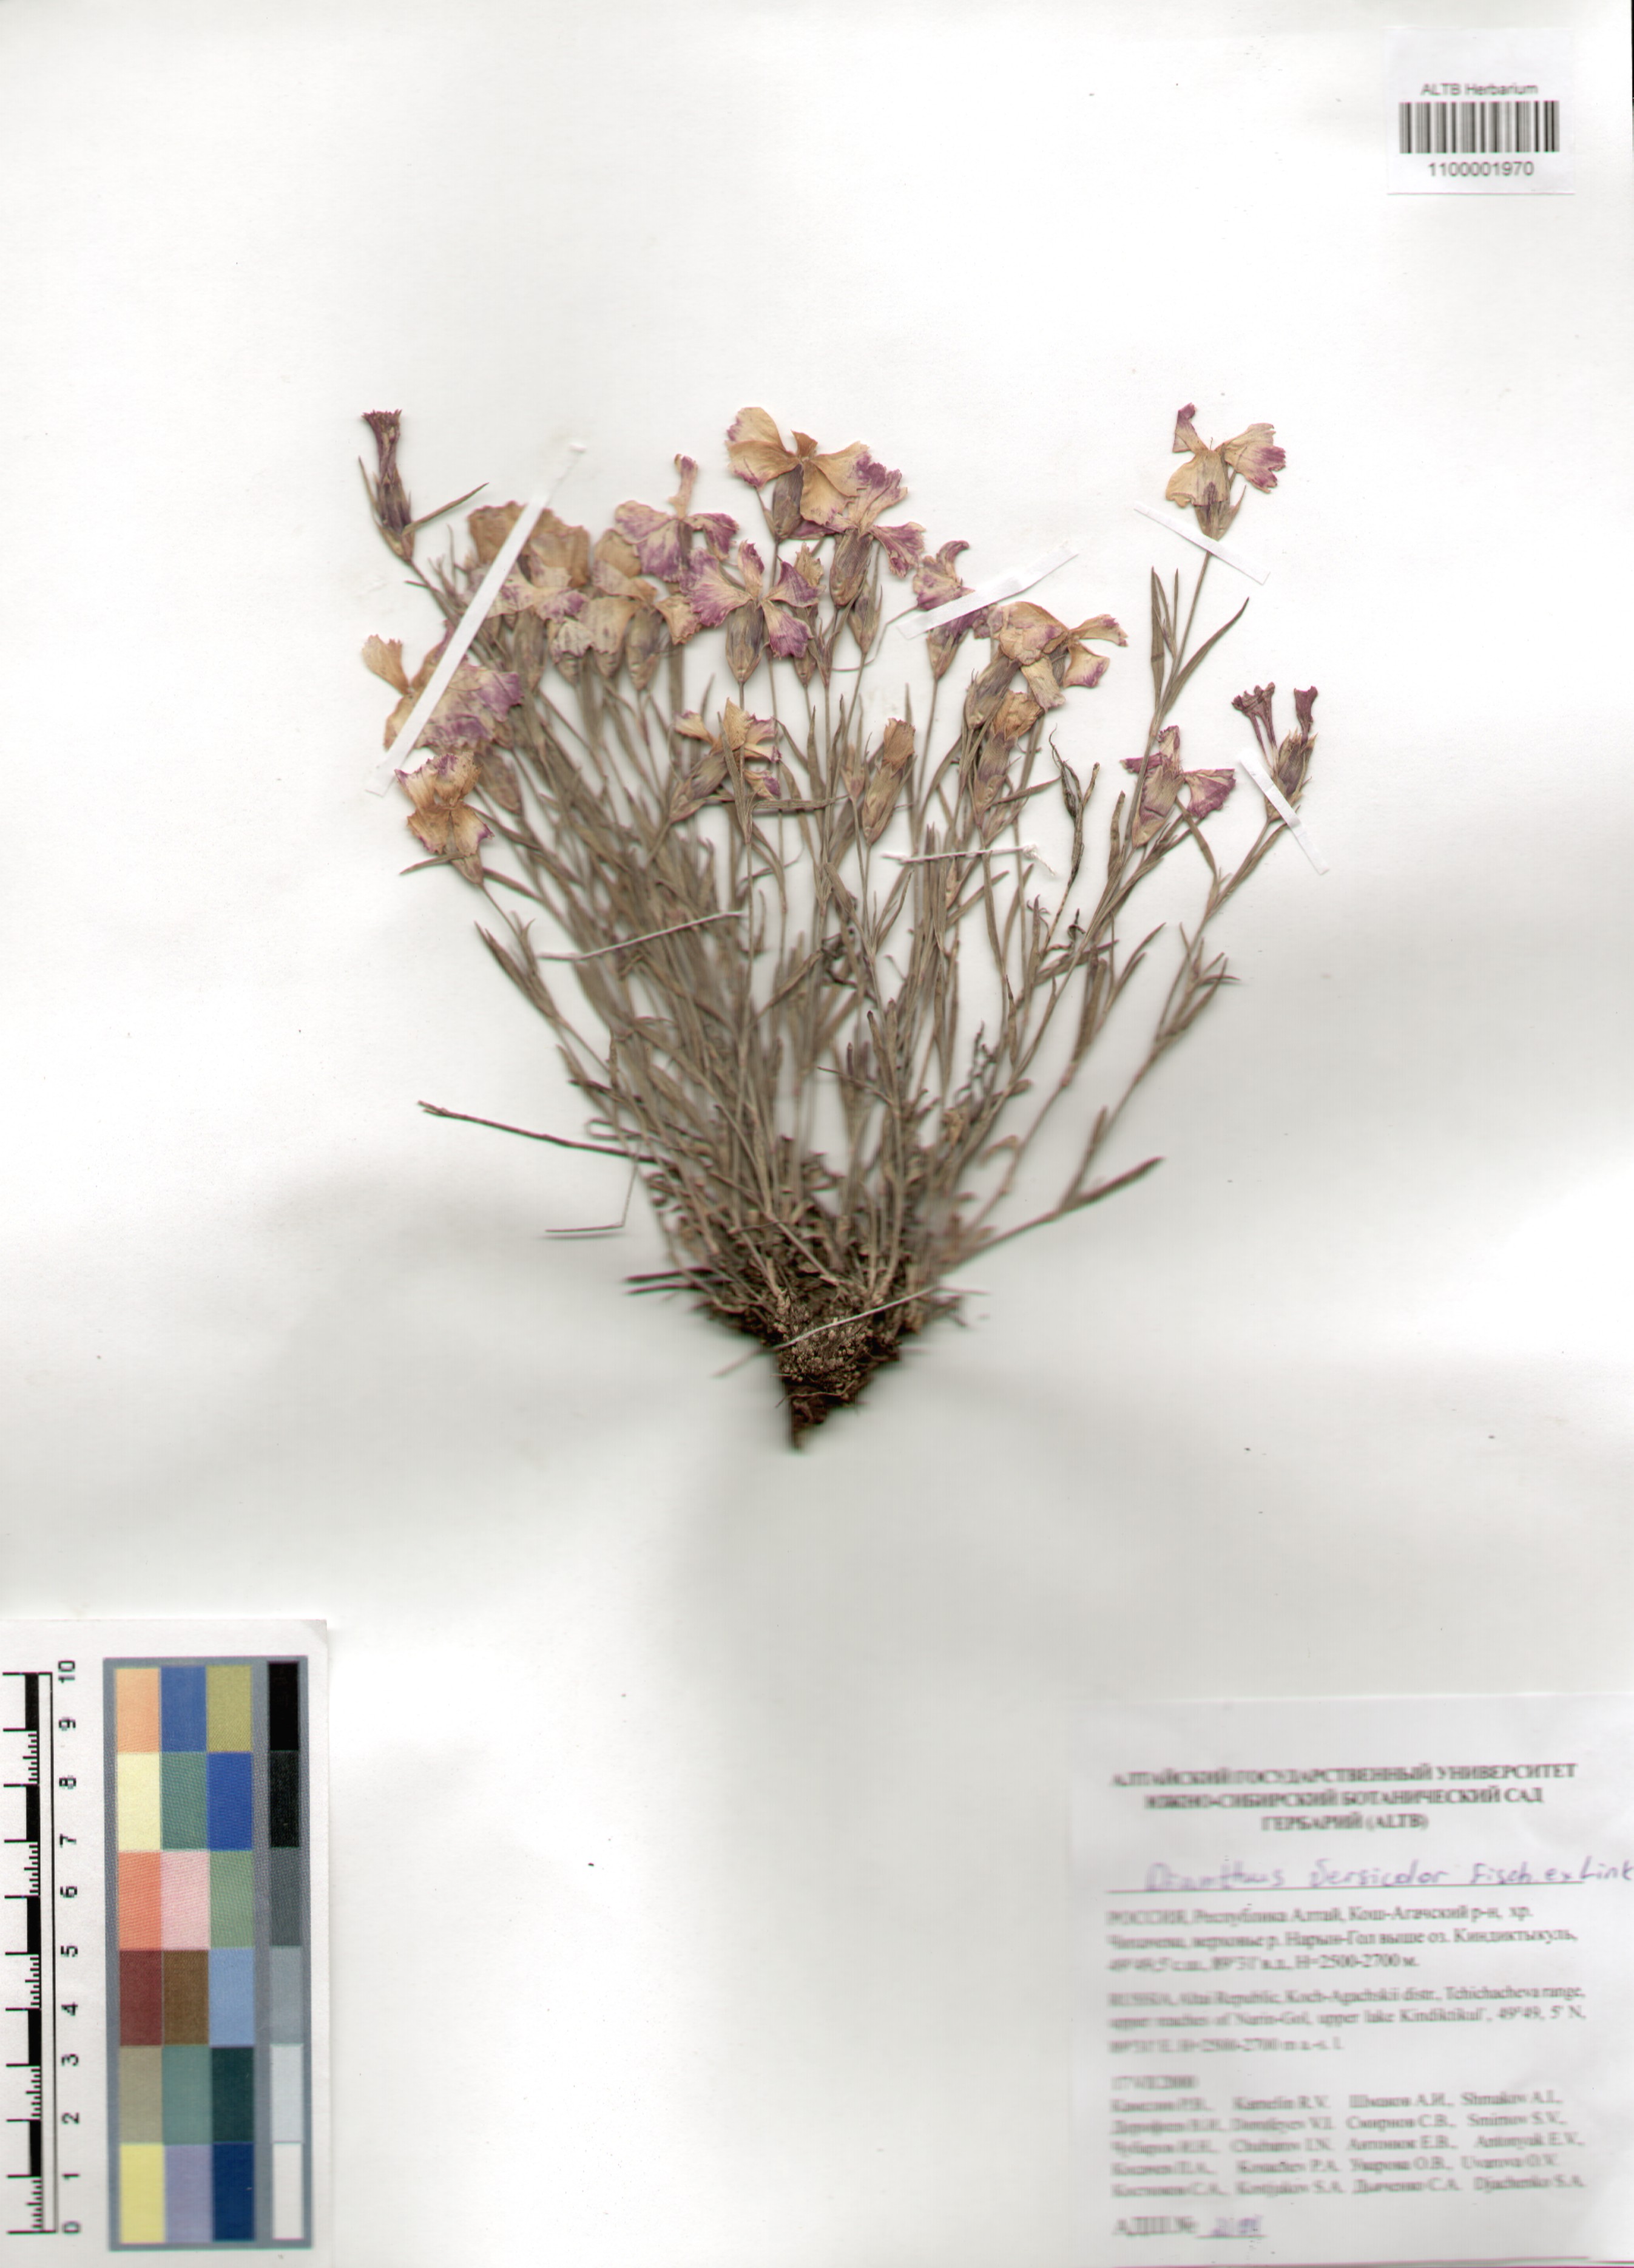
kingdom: Plantae
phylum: Tracheophyta
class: Magnoliopsida
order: Caryophyllales
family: Caryophyllaceae
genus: Dianthus
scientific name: Dianthus chinensis
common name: Rainbow pink
